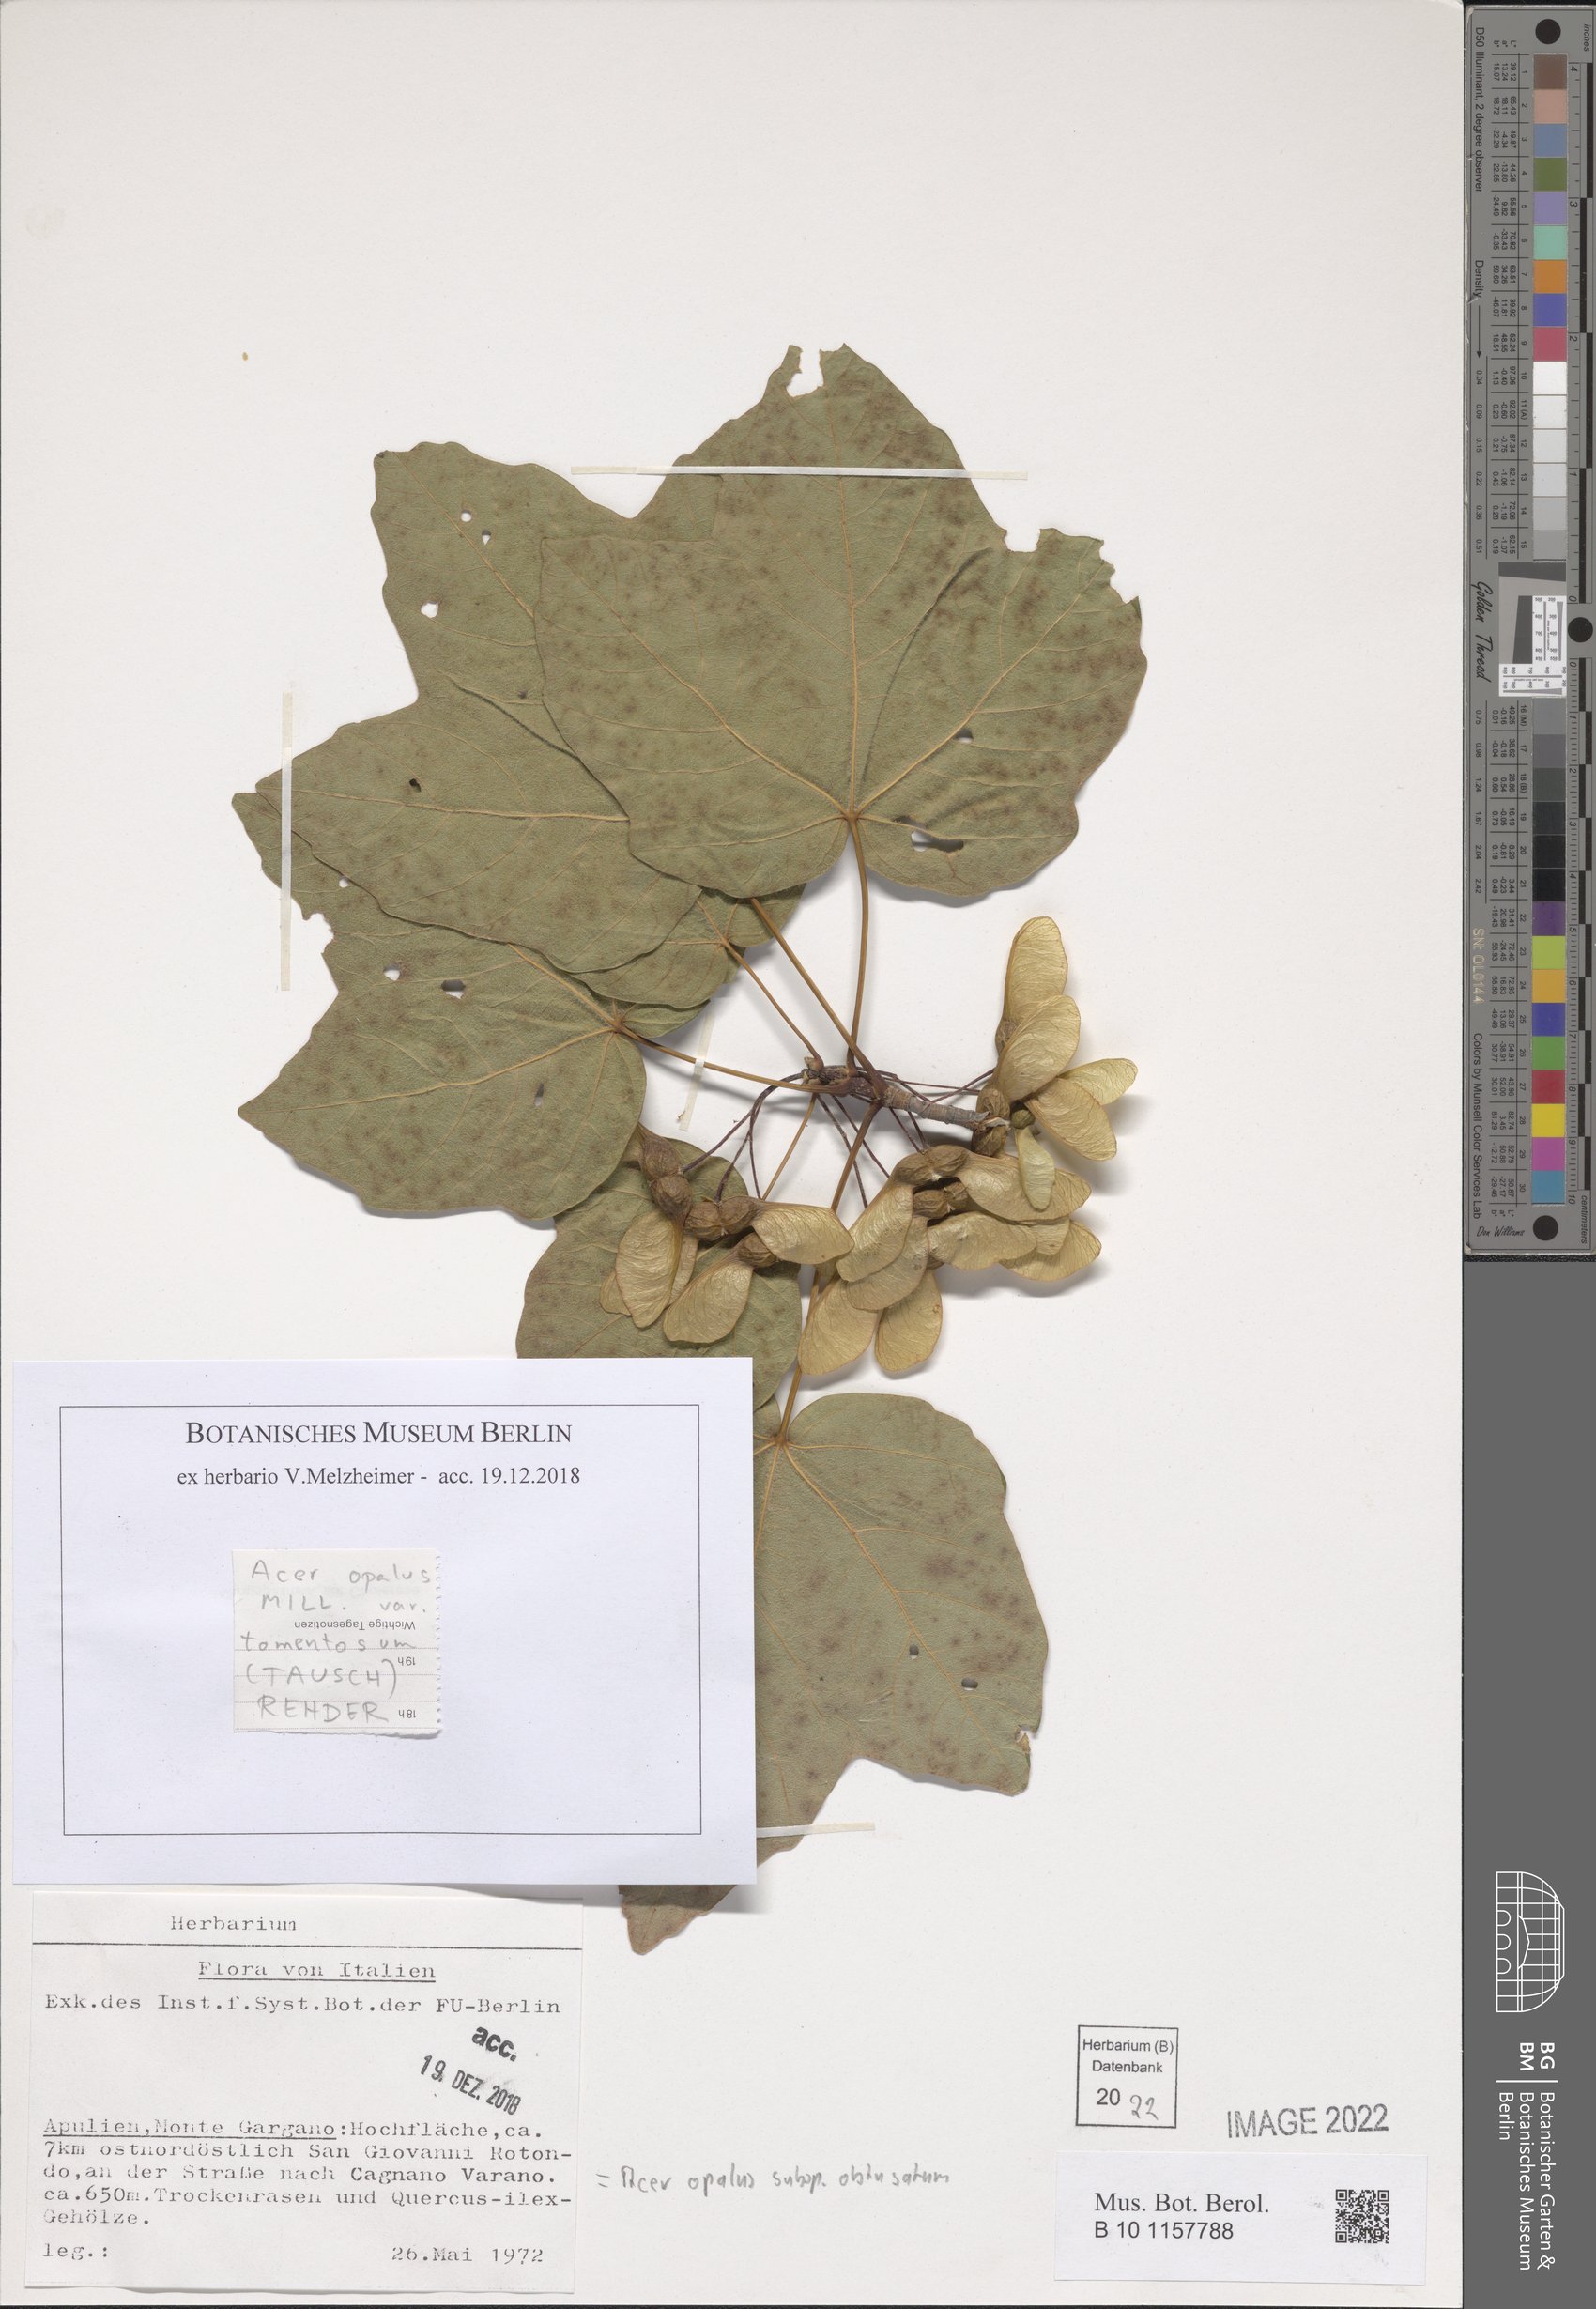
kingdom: Plantae
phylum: Tracheophyta
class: Magnoliopsida
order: Sapindales
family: Sapindaceae
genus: Acer
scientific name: Acer obtusatum
